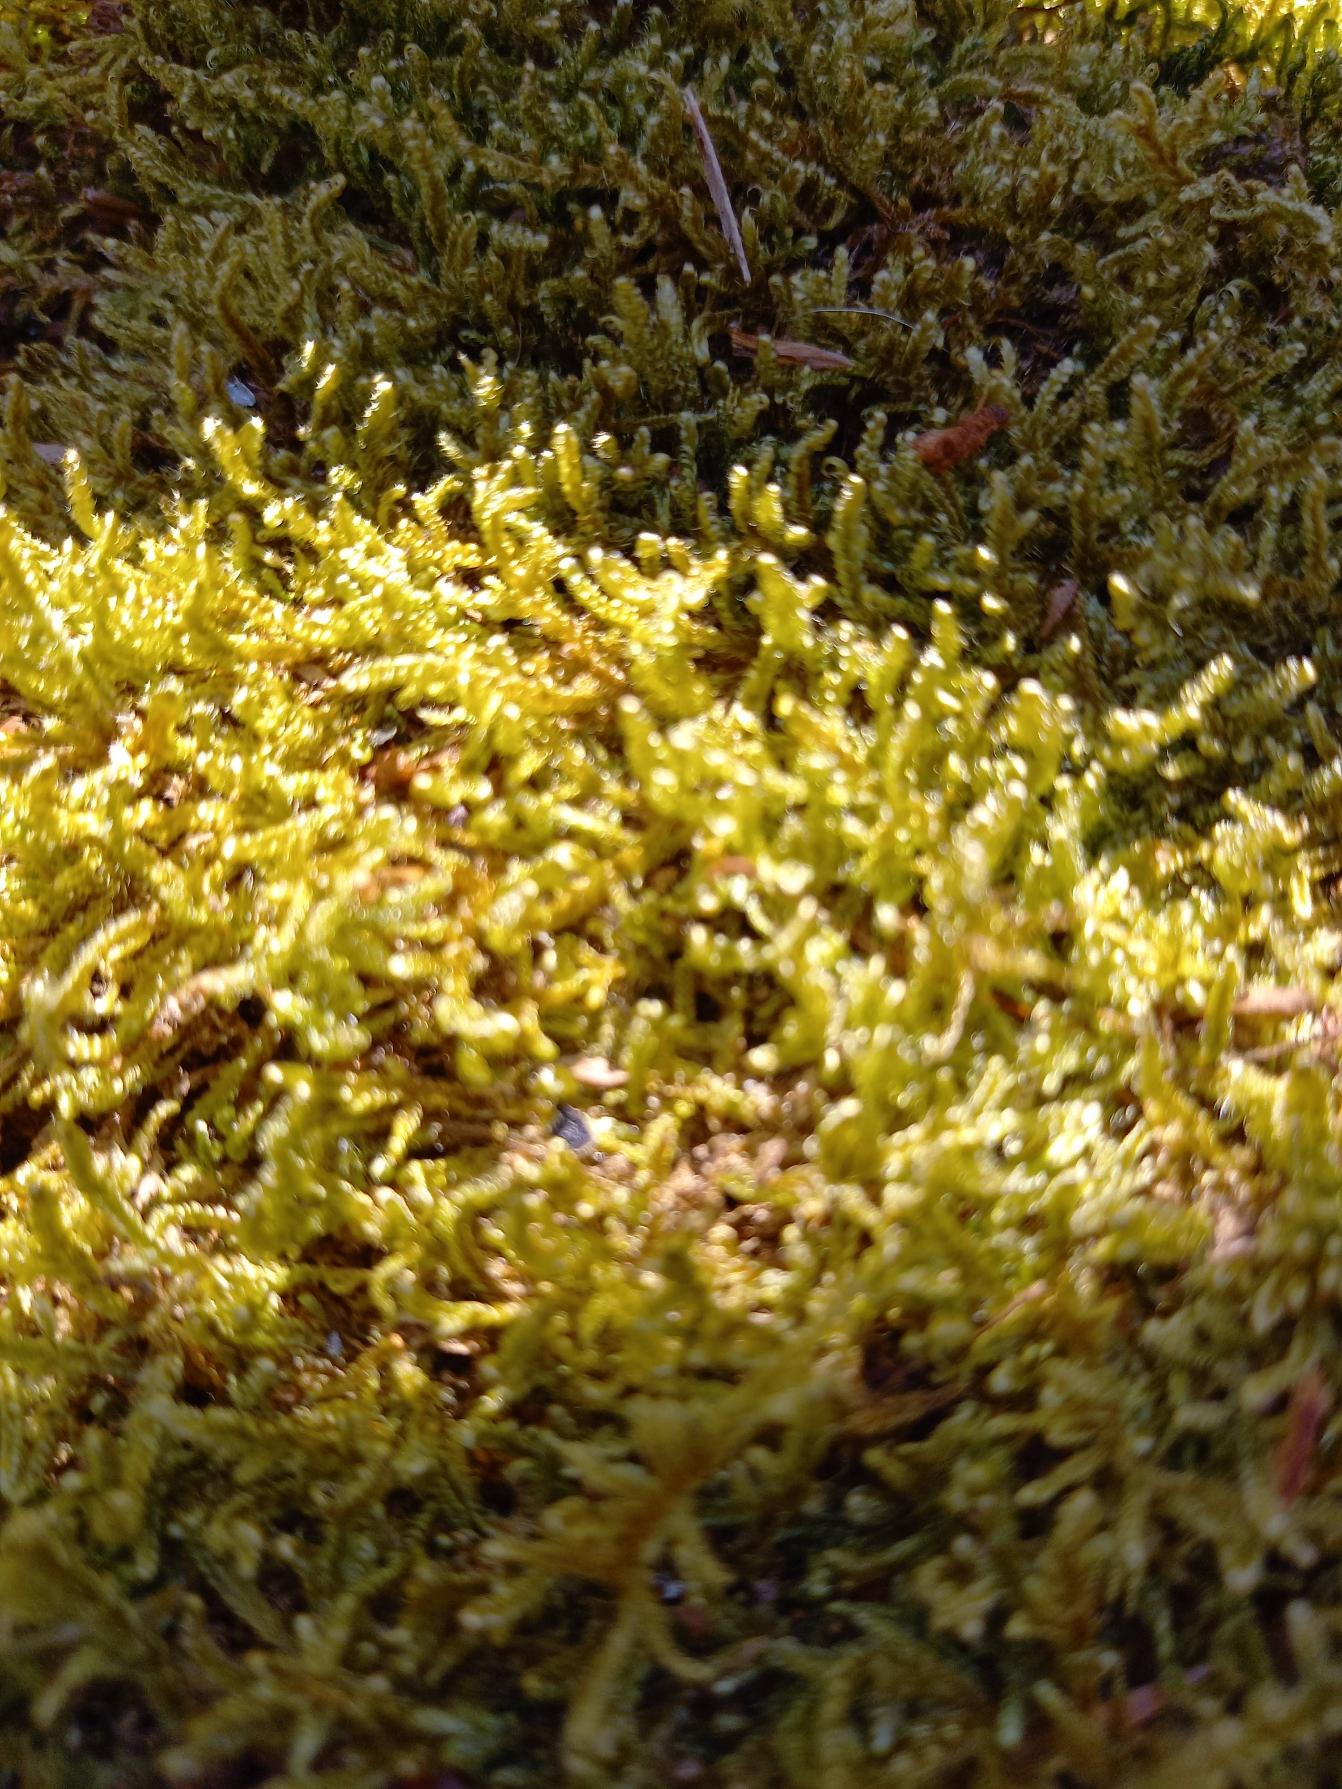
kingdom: Plantae
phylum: Bryophyta
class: Bryopsida
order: Hypnales
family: Hypnaceae
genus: Hypnum
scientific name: Hypnum cupressiforme
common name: Almindelig cypresmos
